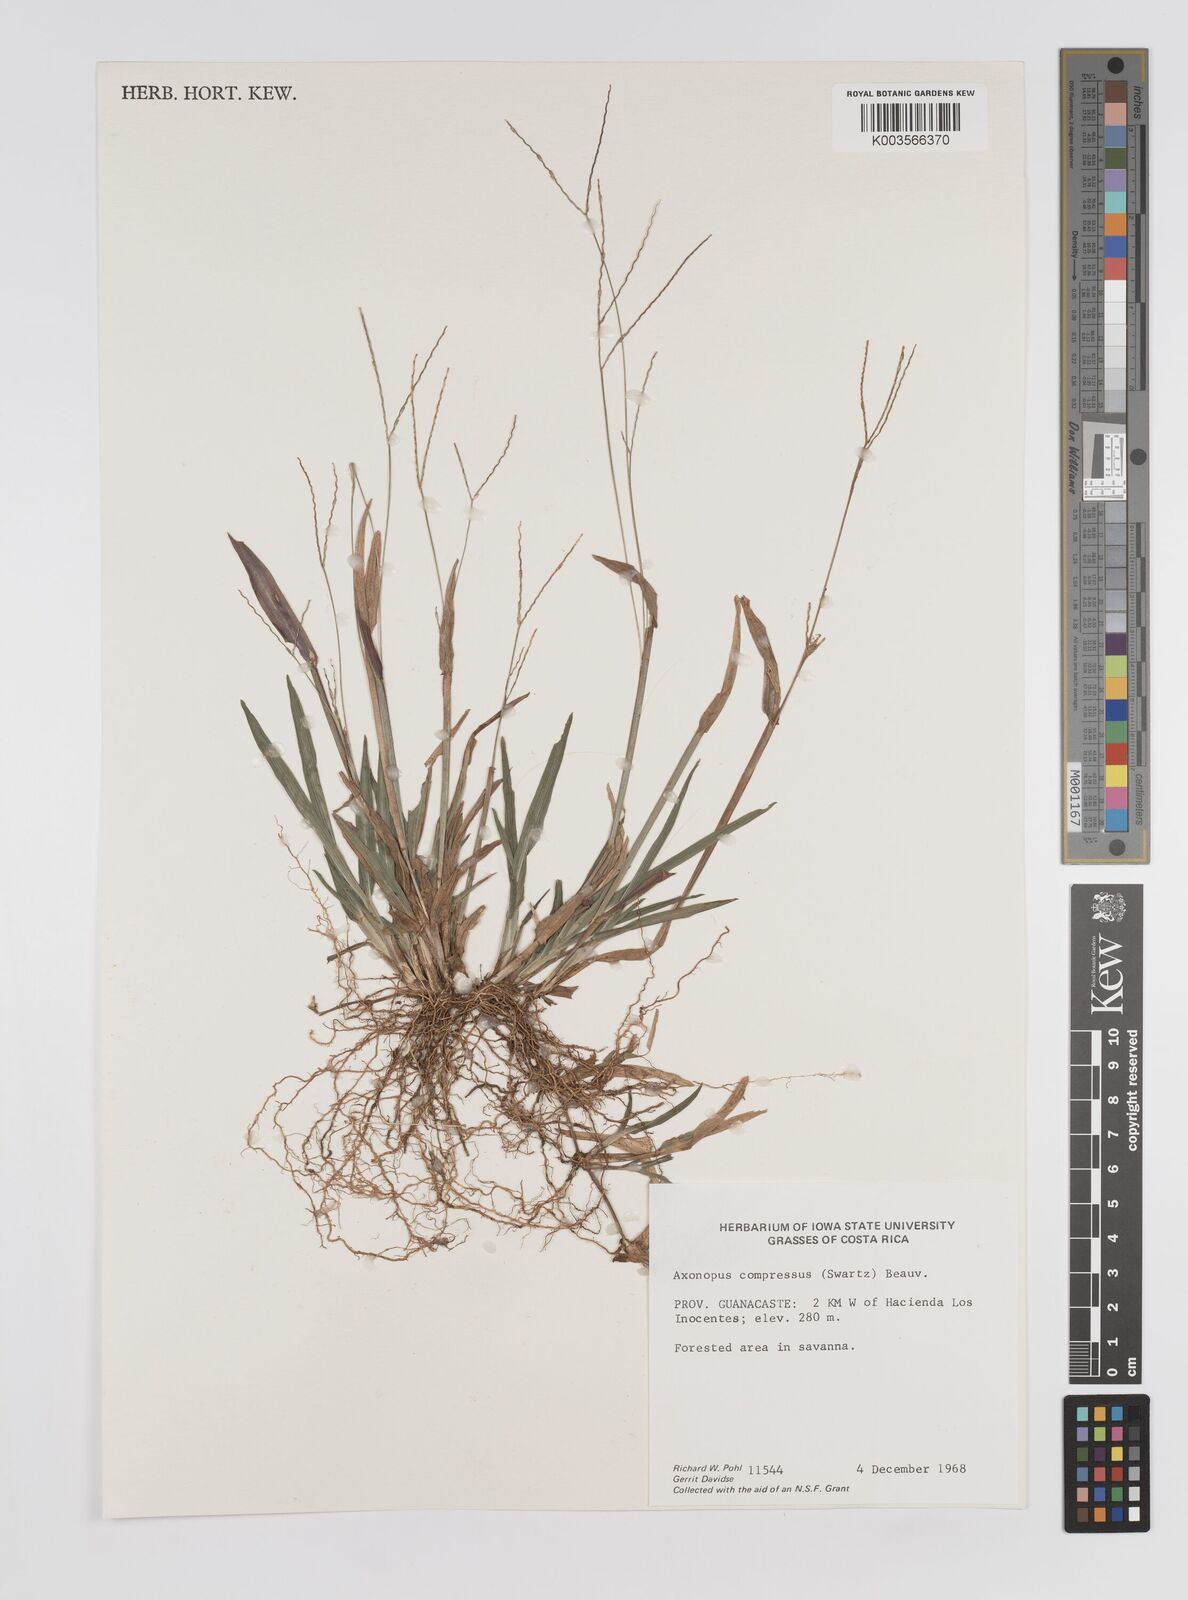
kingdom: Plantae
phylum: Tracheophyta
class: Liliopsida
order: Poales
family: Poaceae
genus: Axonopus
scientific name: Axonopus compressus
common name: American carpet grass
